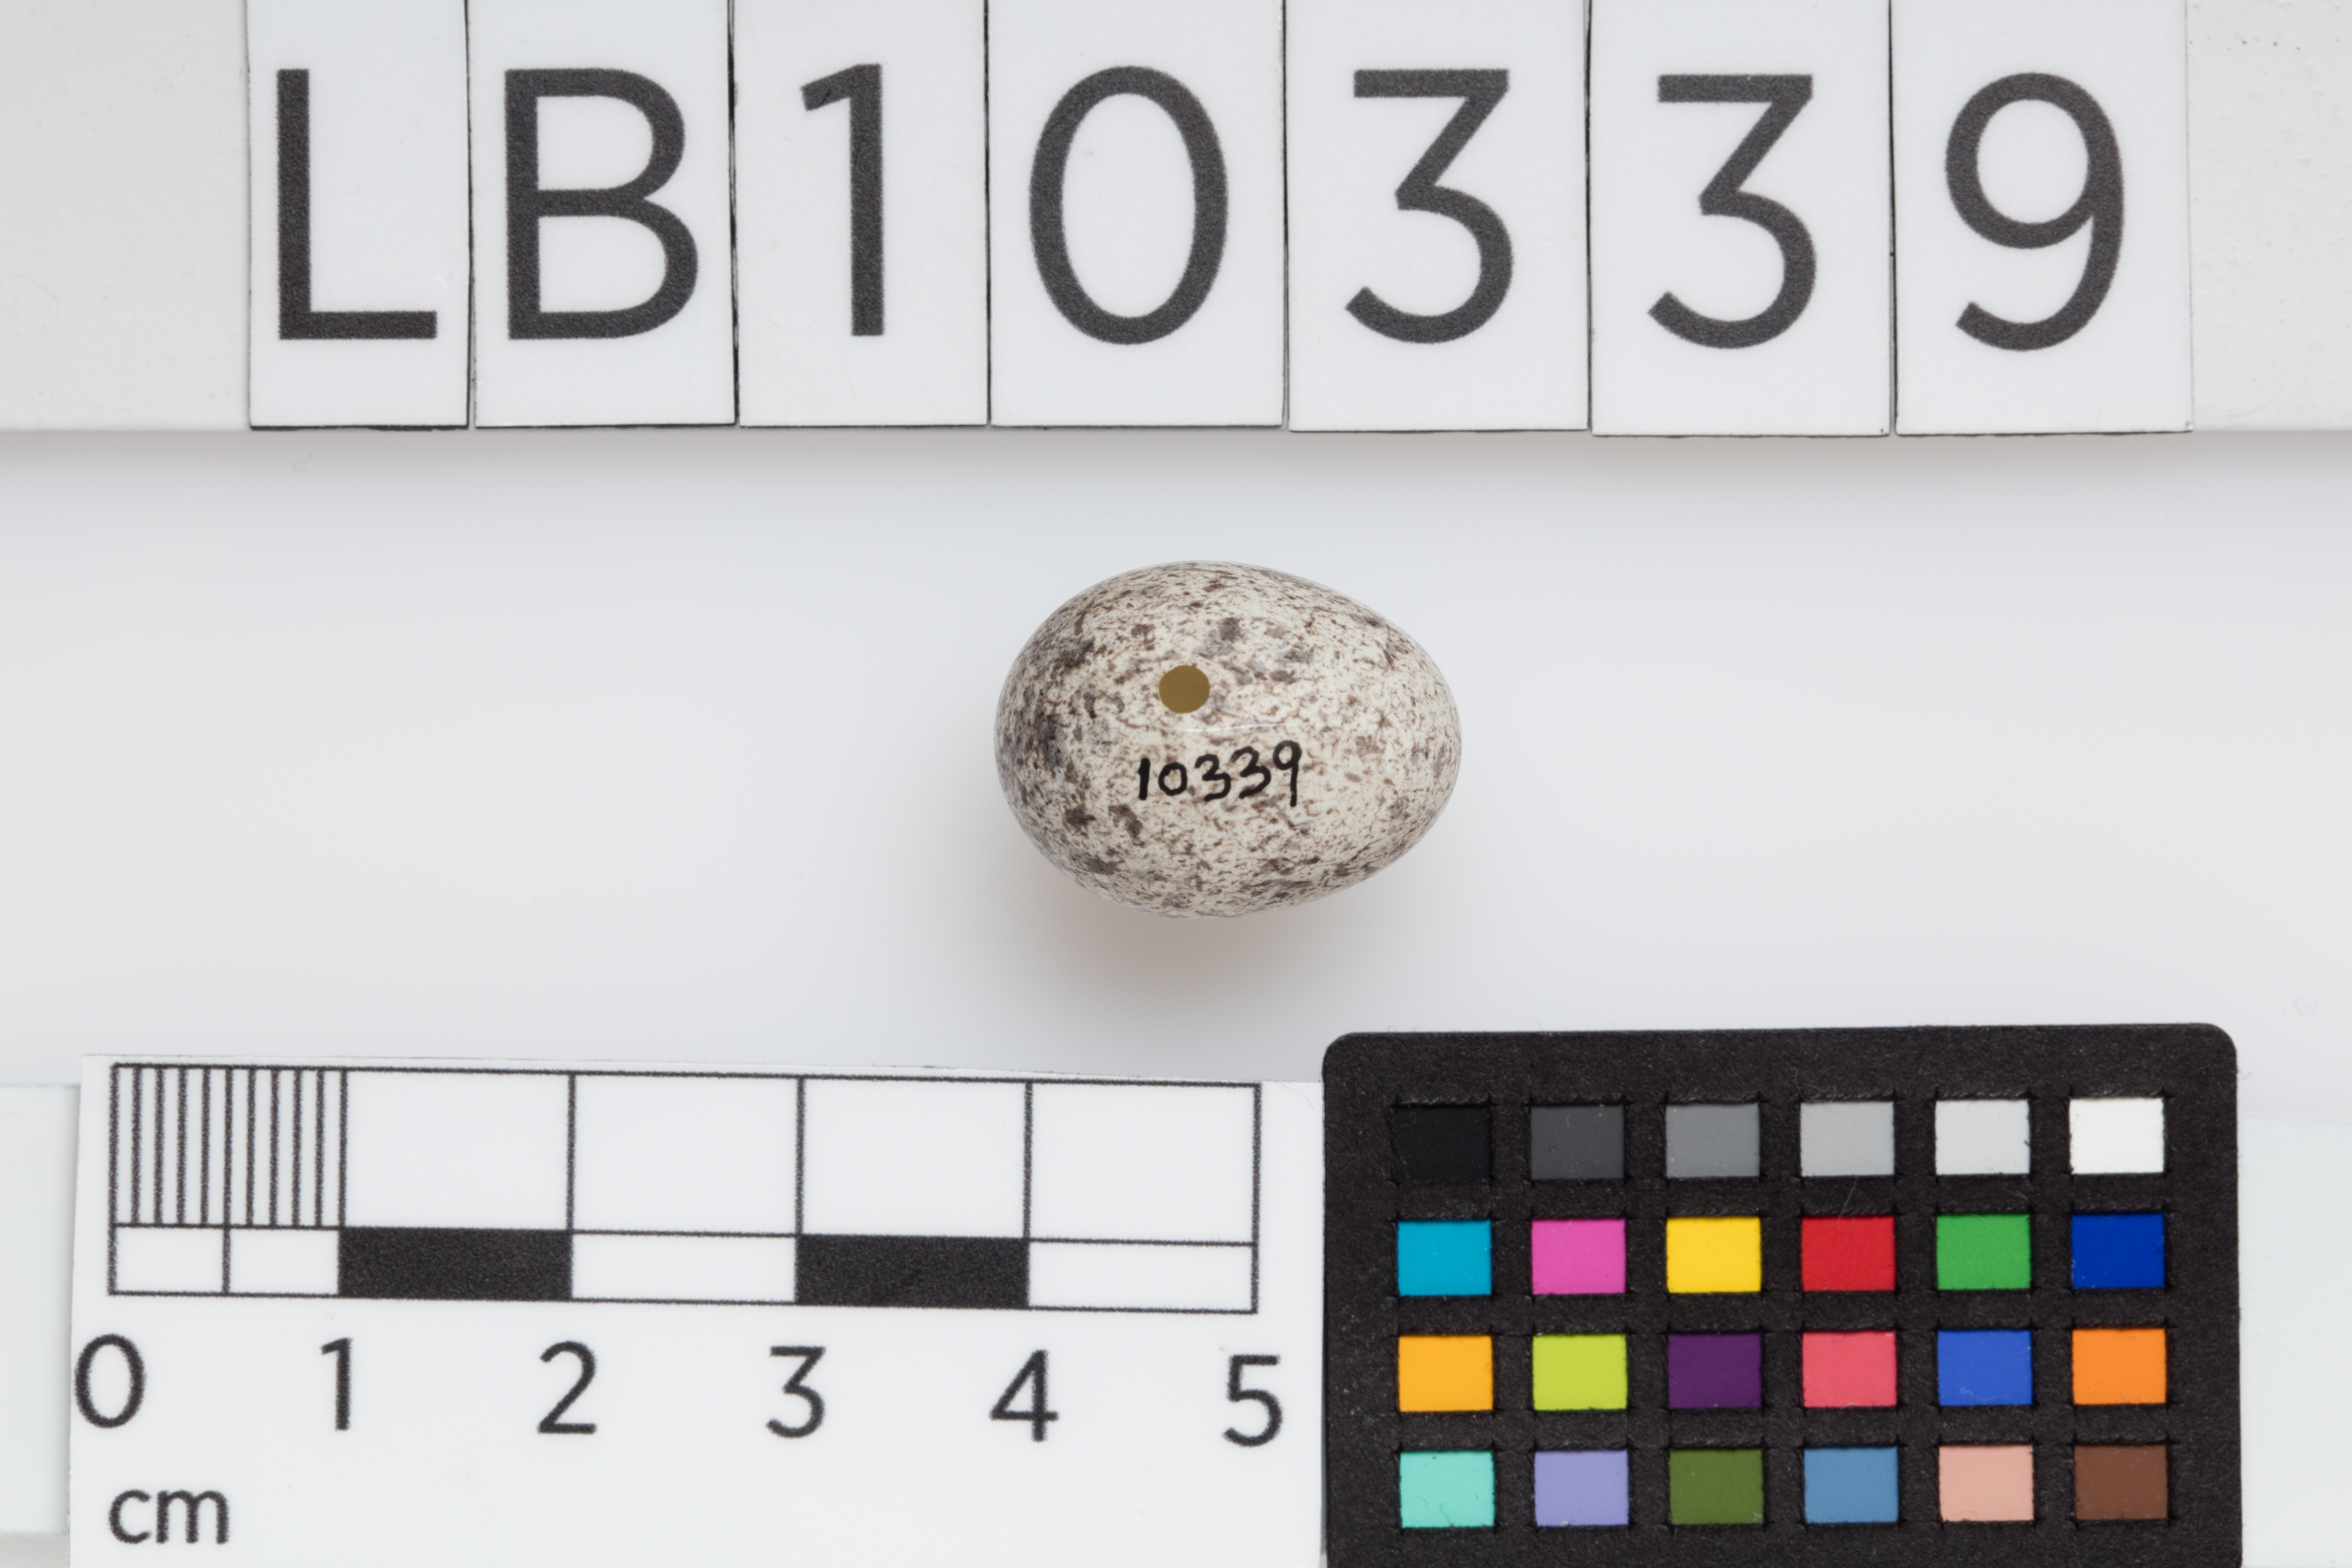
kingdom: Animalia
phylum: Chordata
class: Aves
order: Passeriformes
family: Passeridae
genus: Passer
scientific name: Passer montanus
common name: Eurasian tree sparrow
